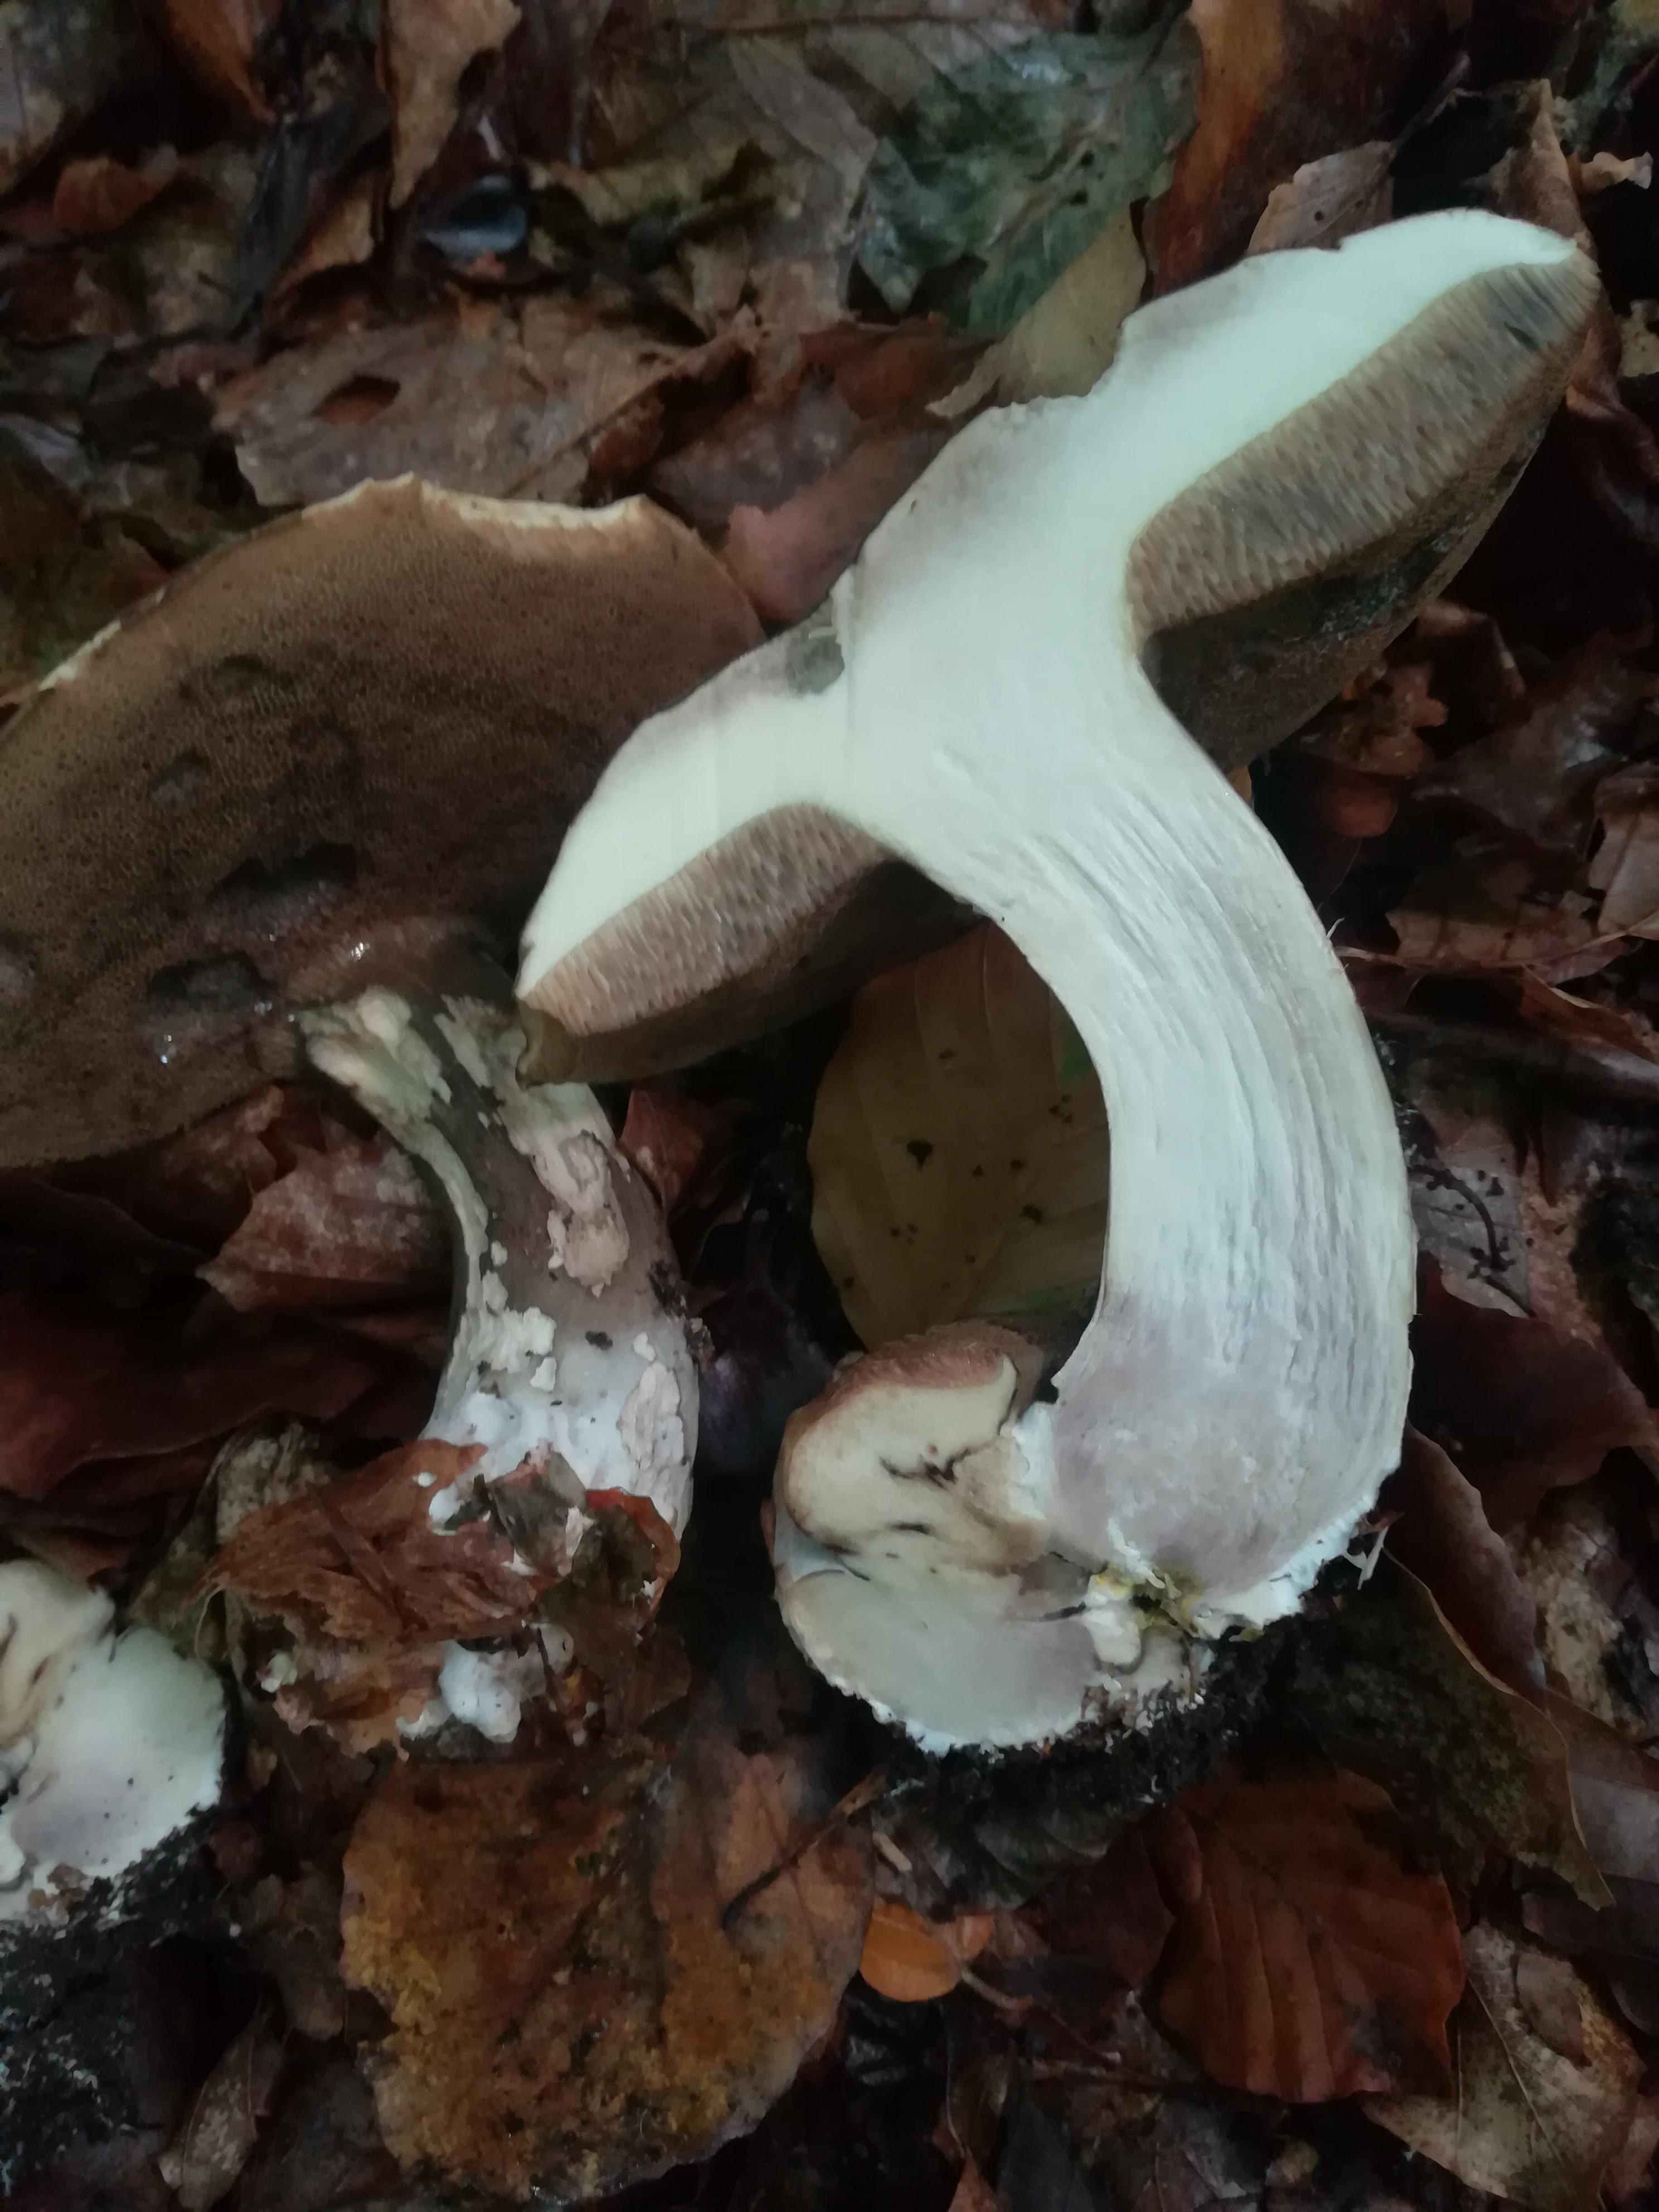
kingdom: Fungi
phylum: Basidiomycota
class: Agaricomycetes
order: Boletales
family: Boletaceae
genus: Porphyrellus
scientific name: Porphyrellus porphyrosporus
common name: sodrørhat
